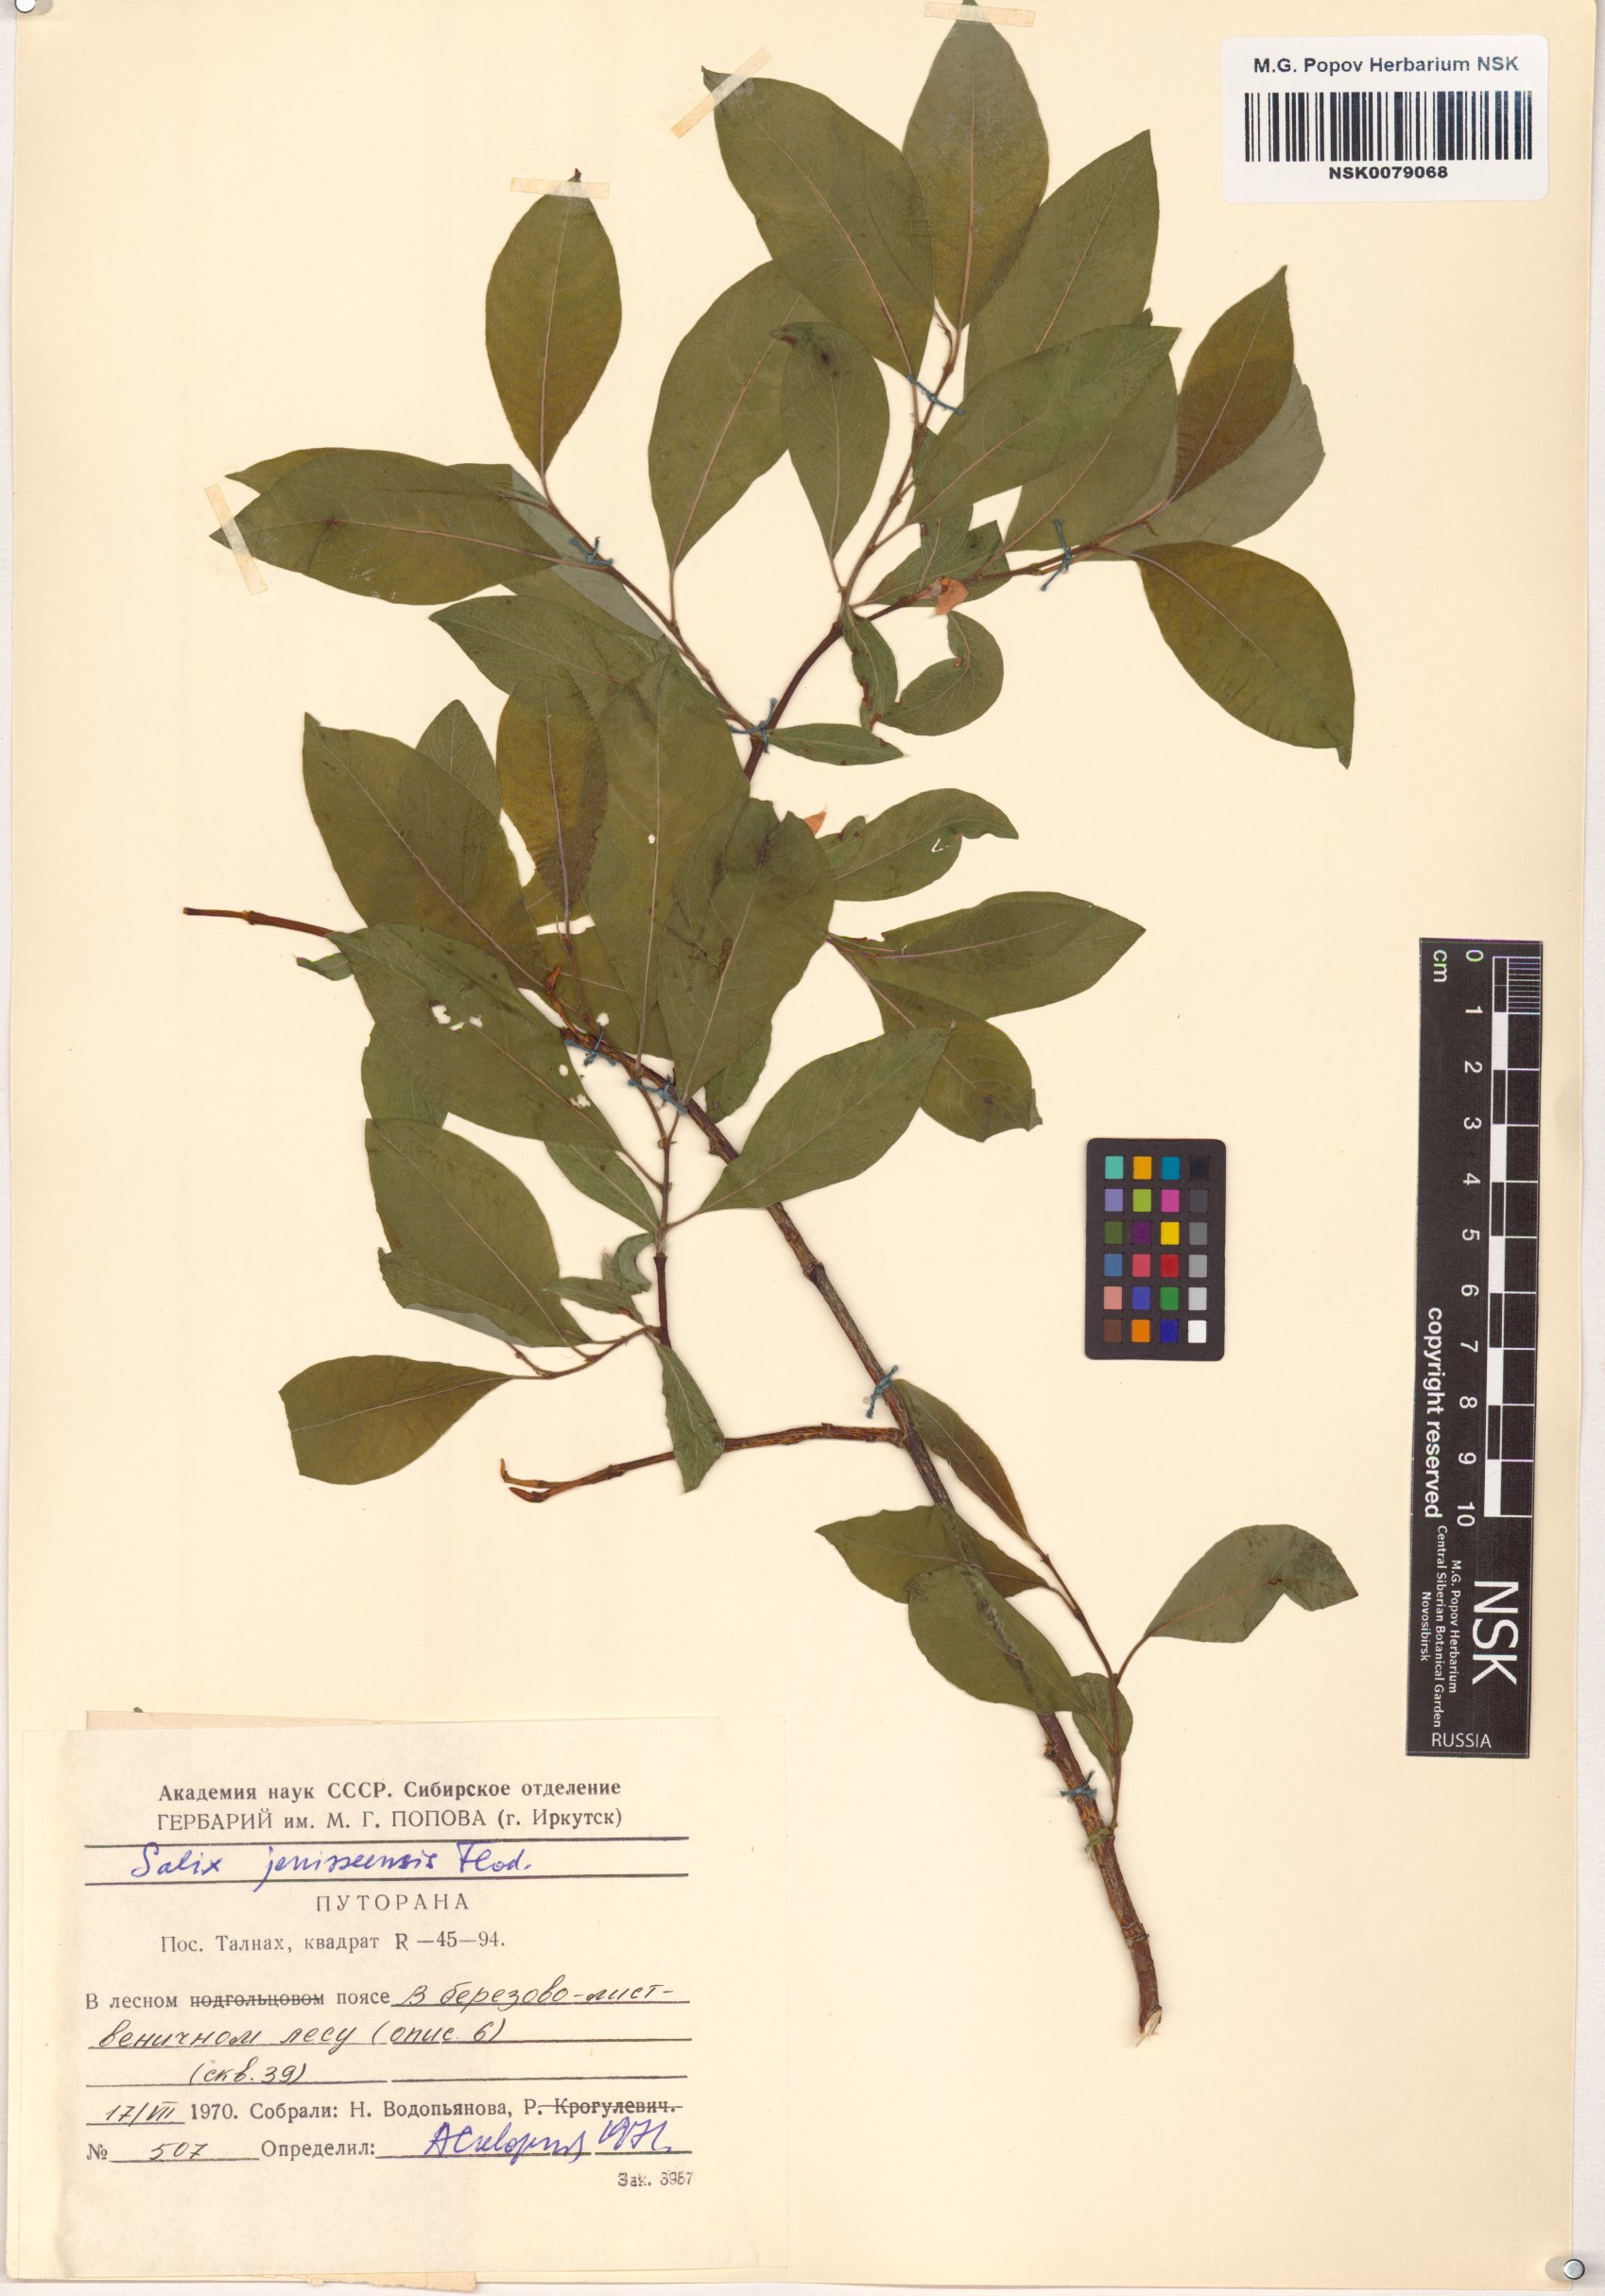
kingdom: Plantae
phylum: Tracheophyta
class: Magnoliopsida
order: Malpighiales
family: Salicaceae
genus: Salix
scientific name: Salix jenisseensis
